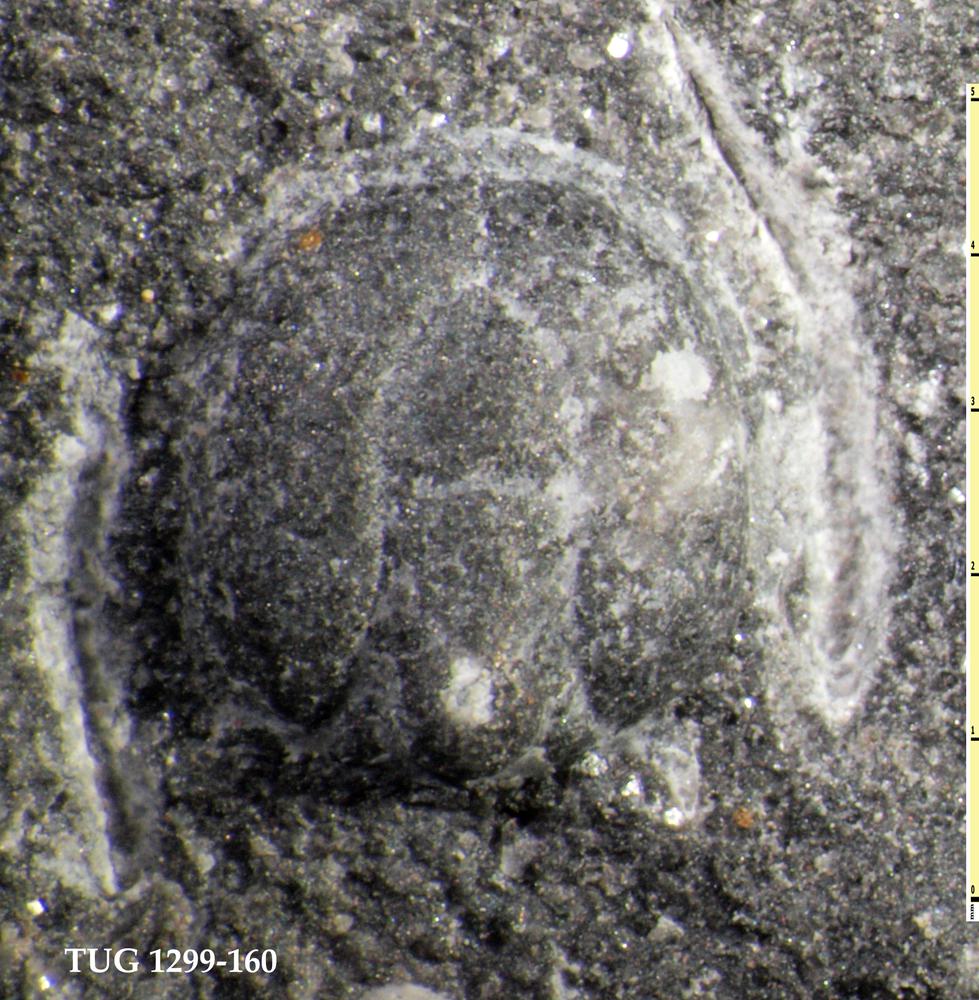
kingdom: Animalia
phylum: Arthropoda
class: Trilobita
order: Agnostida
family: Agnostidae
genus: Agnostus
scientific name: Agnostus Entomostracites pisiformis
